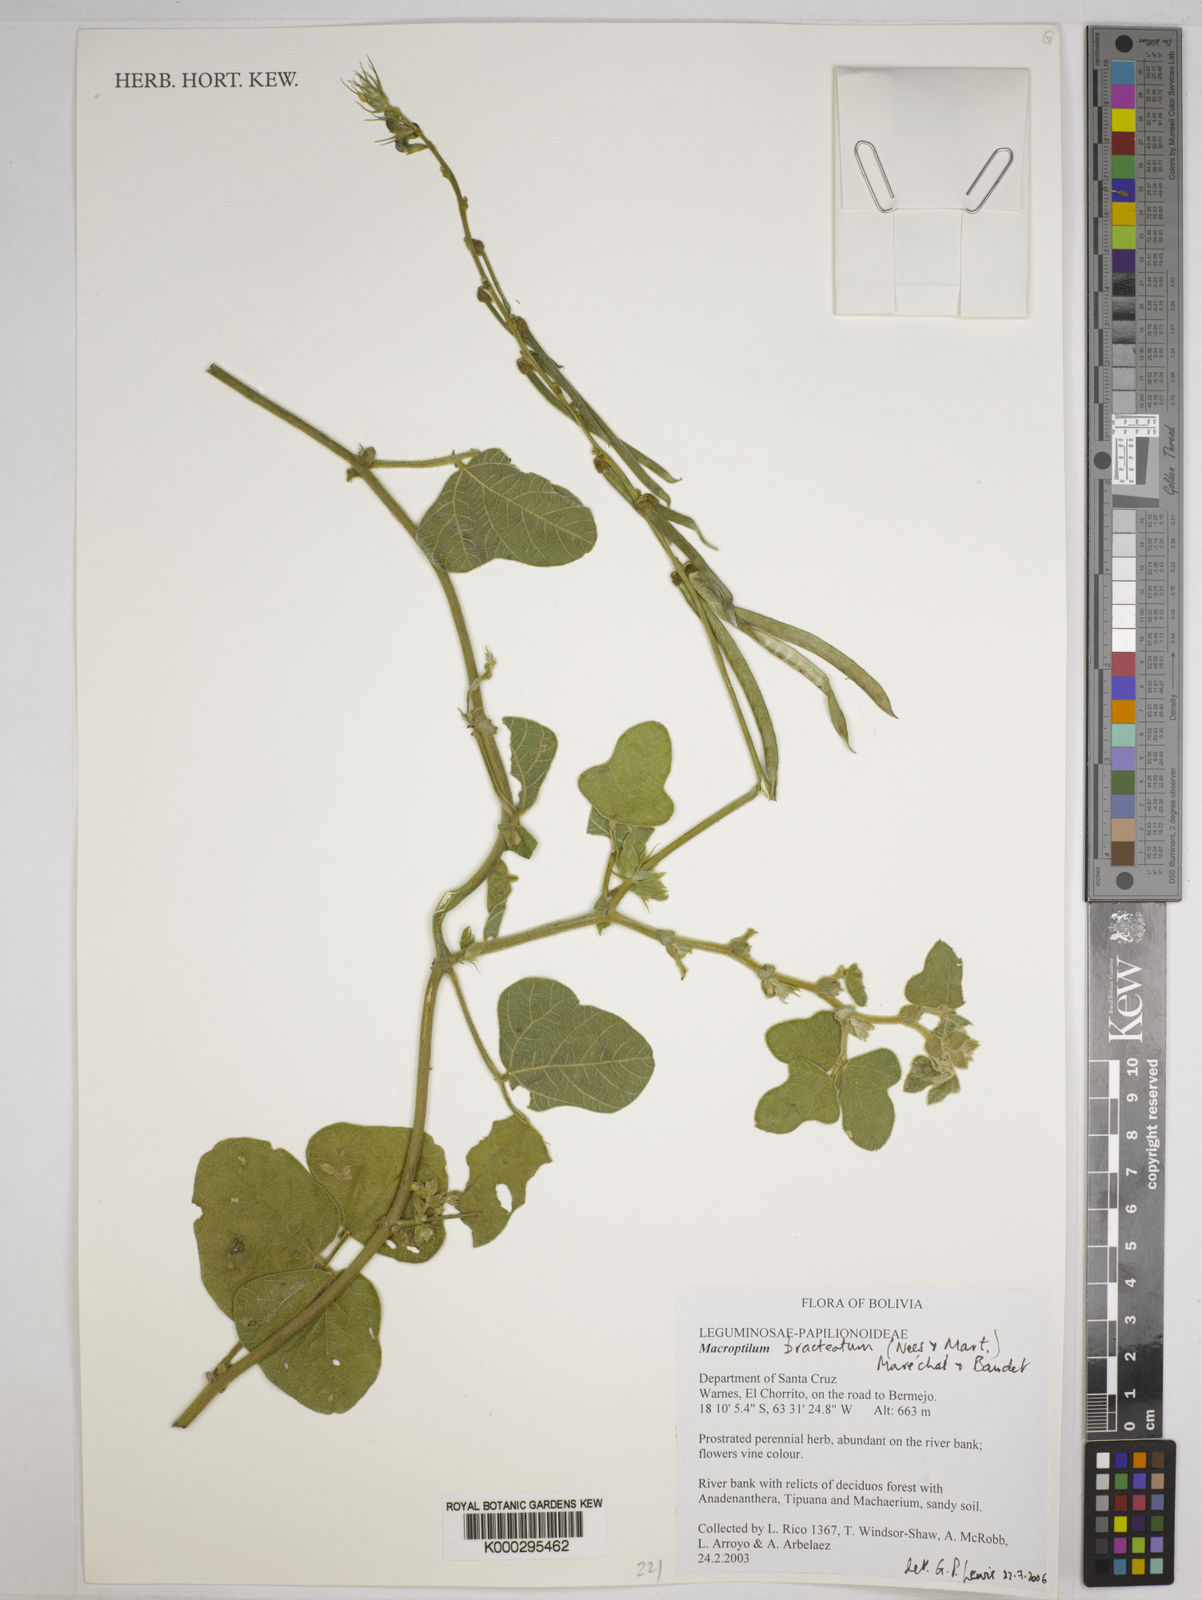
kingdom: Plantae
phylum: Tracheophyta
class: Magnoliopsida
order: Fabales
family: Fabaceae
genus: Macroptilium
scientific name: Macroptilium
